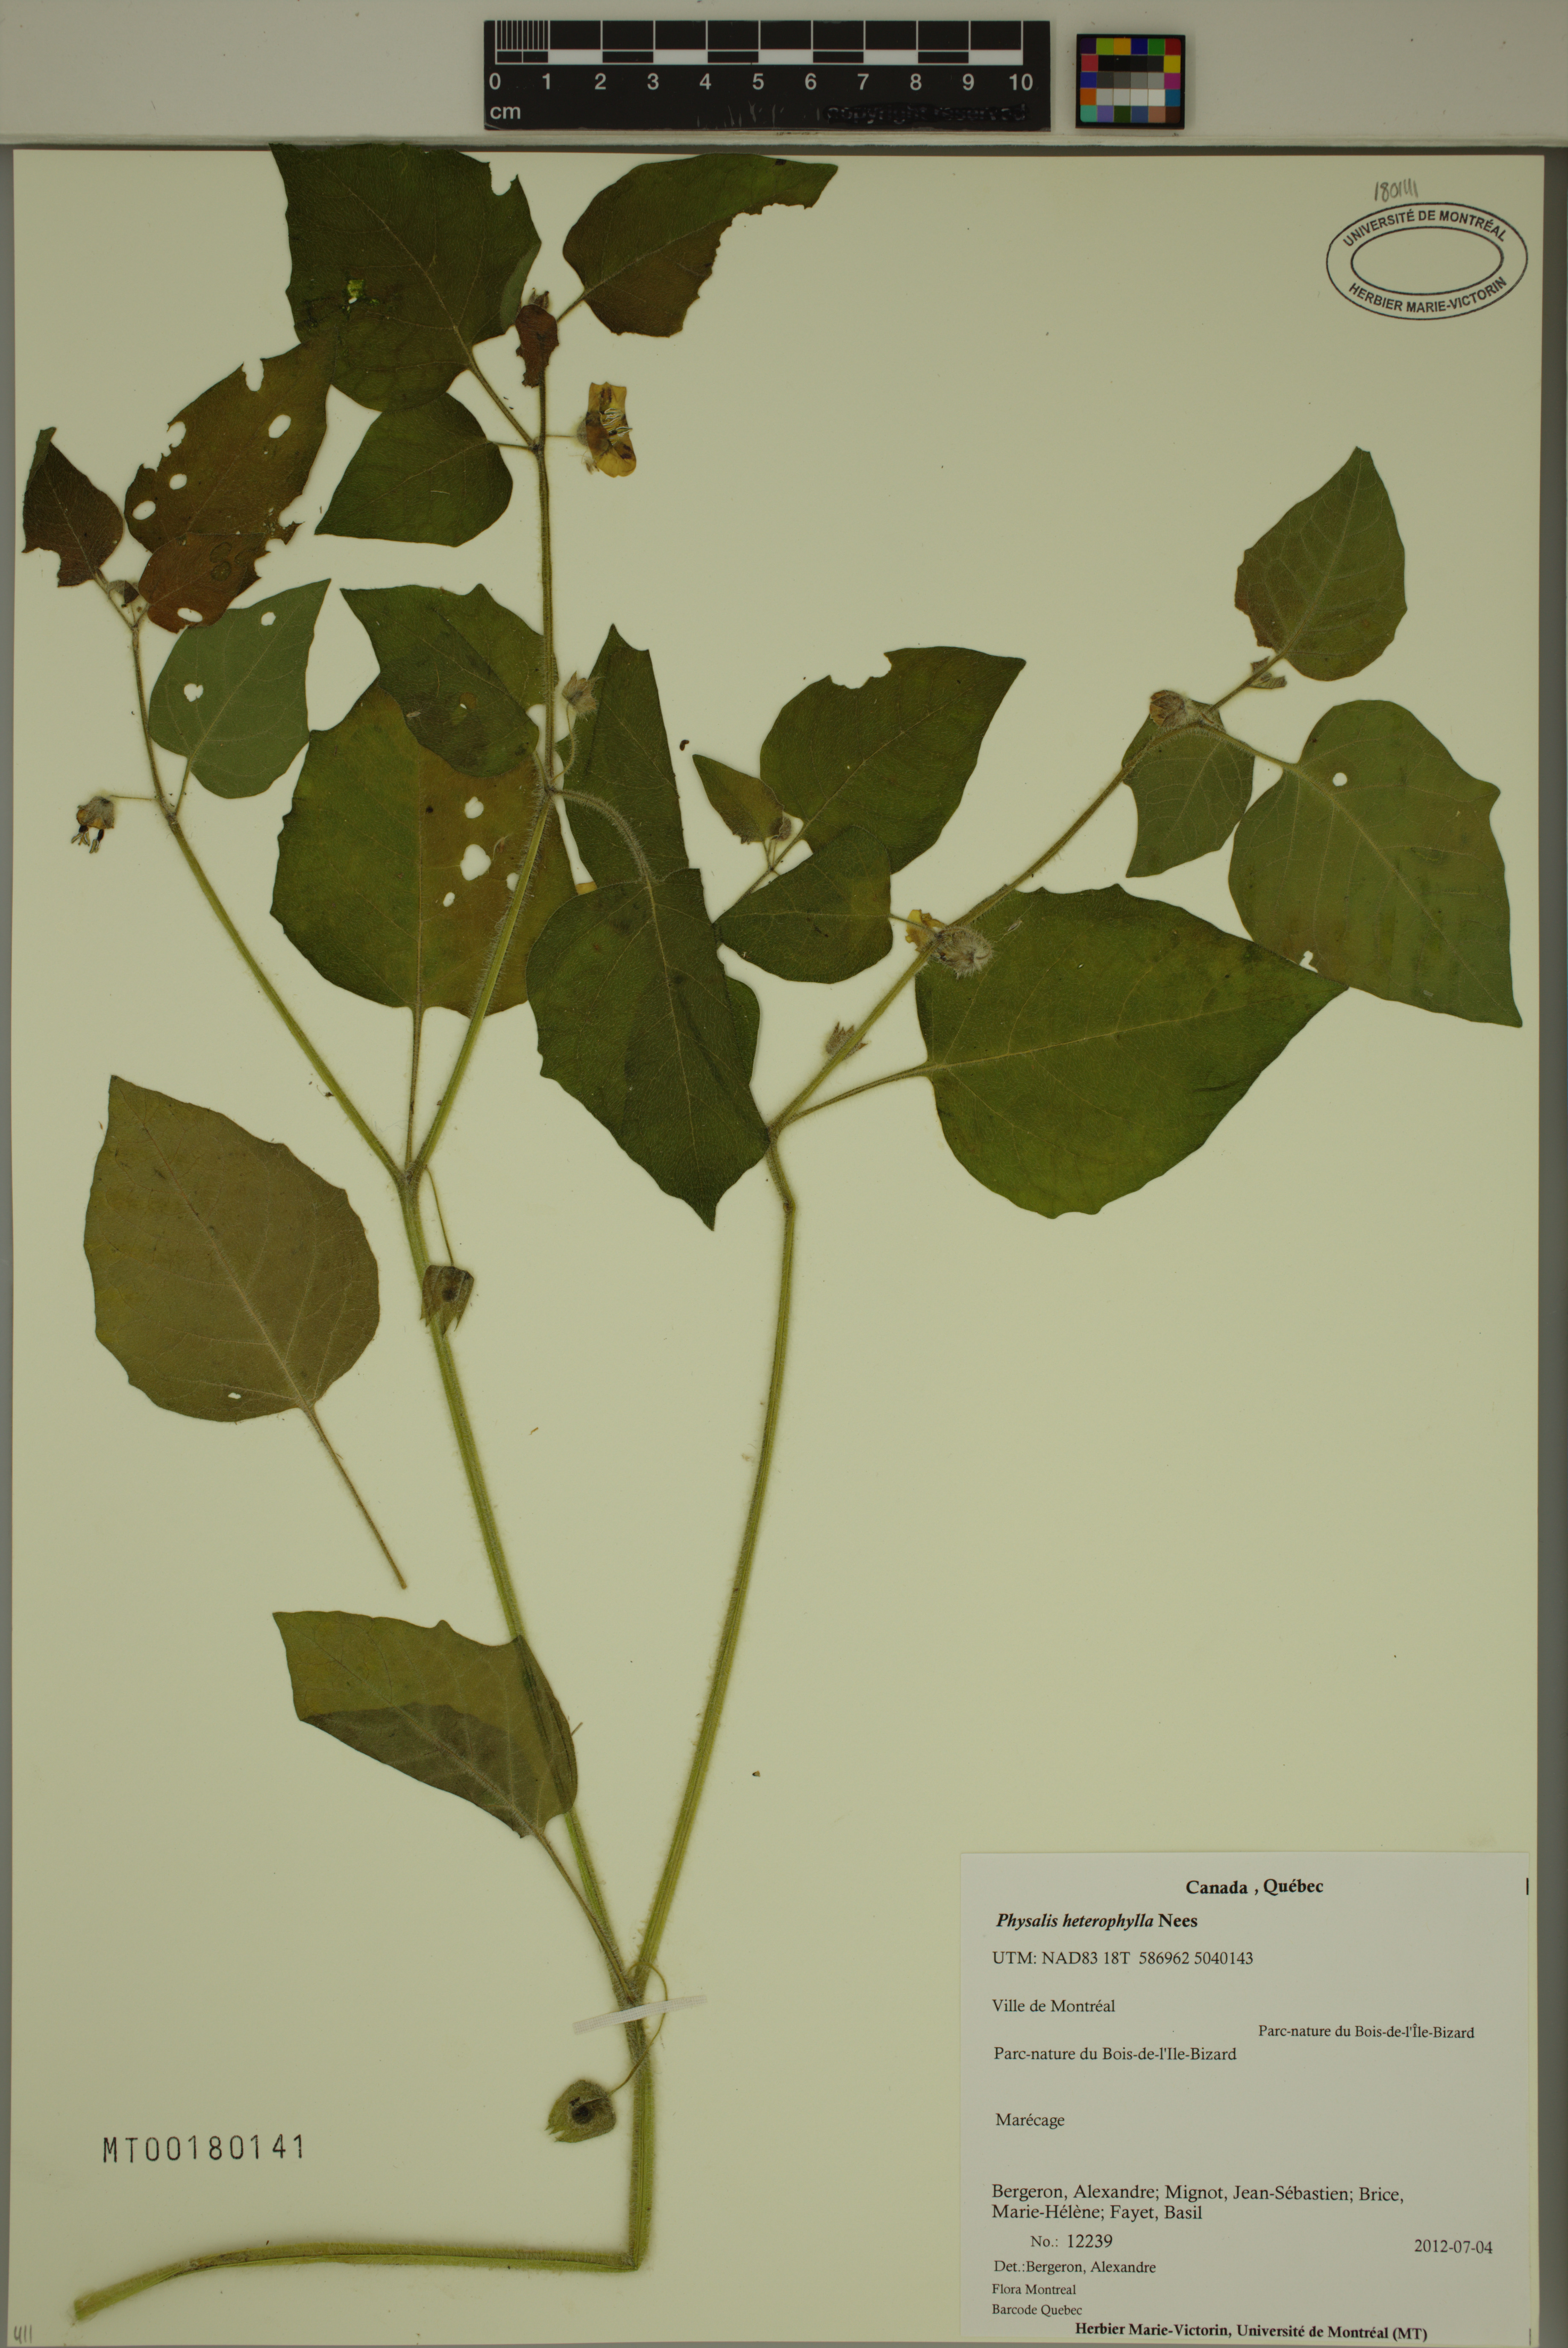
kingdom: Plantae
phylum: Tracheophyta
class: Magnoliopsida
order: Solanales
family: Solanaceae
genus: Physalis
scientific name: Physalis heterophylla
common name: Clammy ground-cherry
